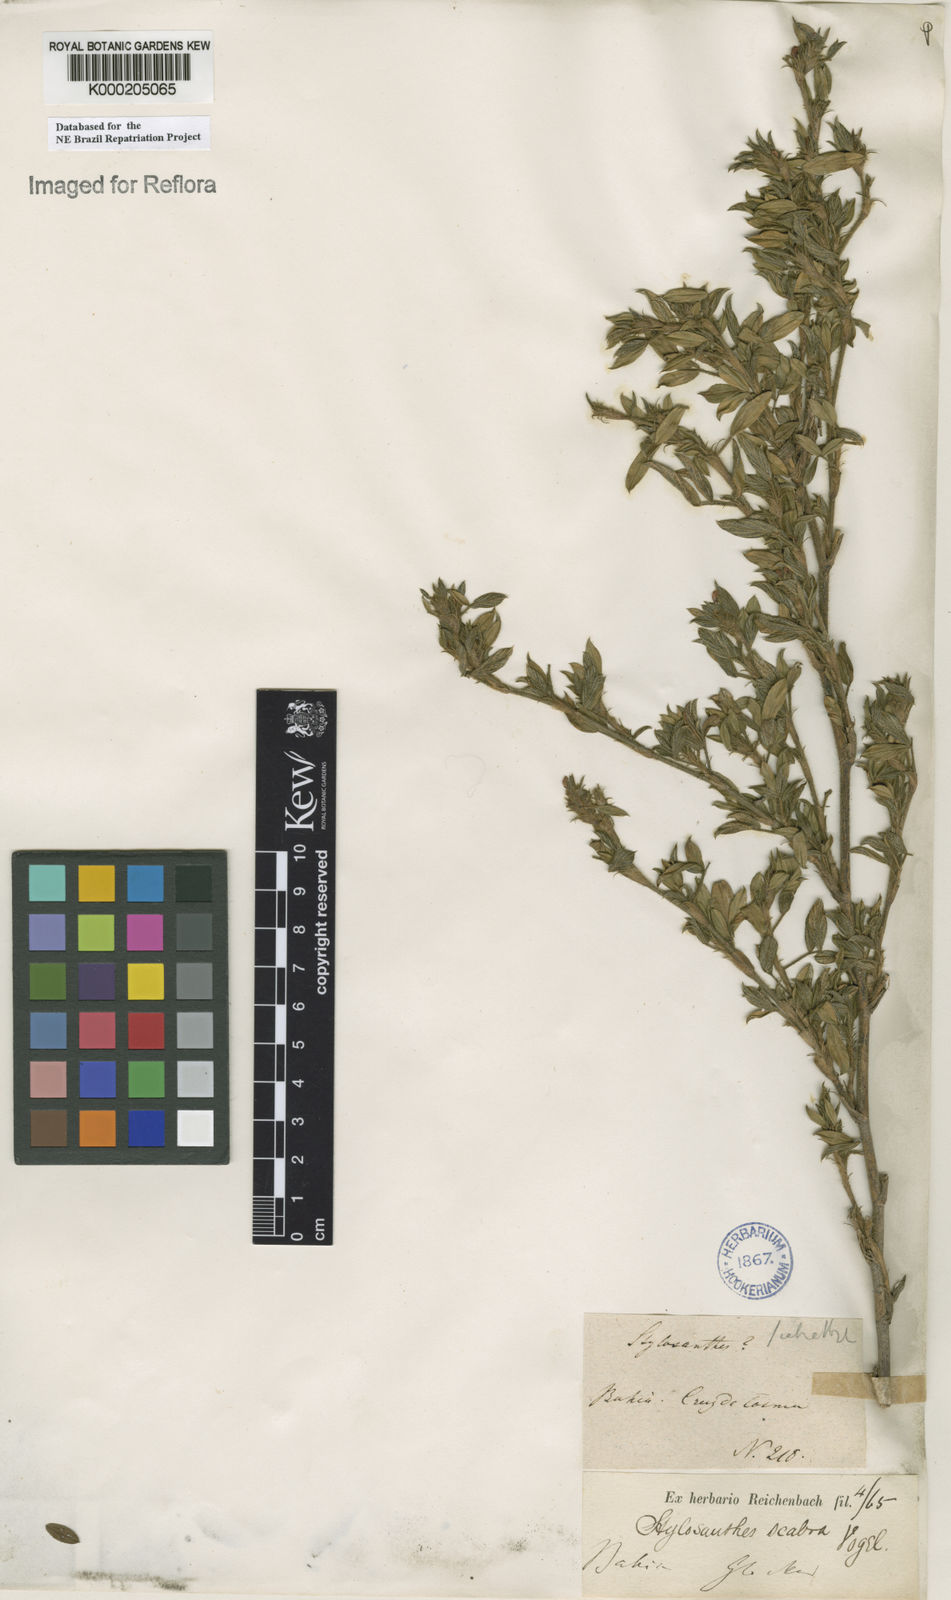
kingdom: Plantae
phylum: Tracheophyta
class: Magnoliopsida
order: Fabales
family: Fabaceae
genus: Stylosanthes
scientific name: Stylosanthes scabra
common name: Pencilflower
